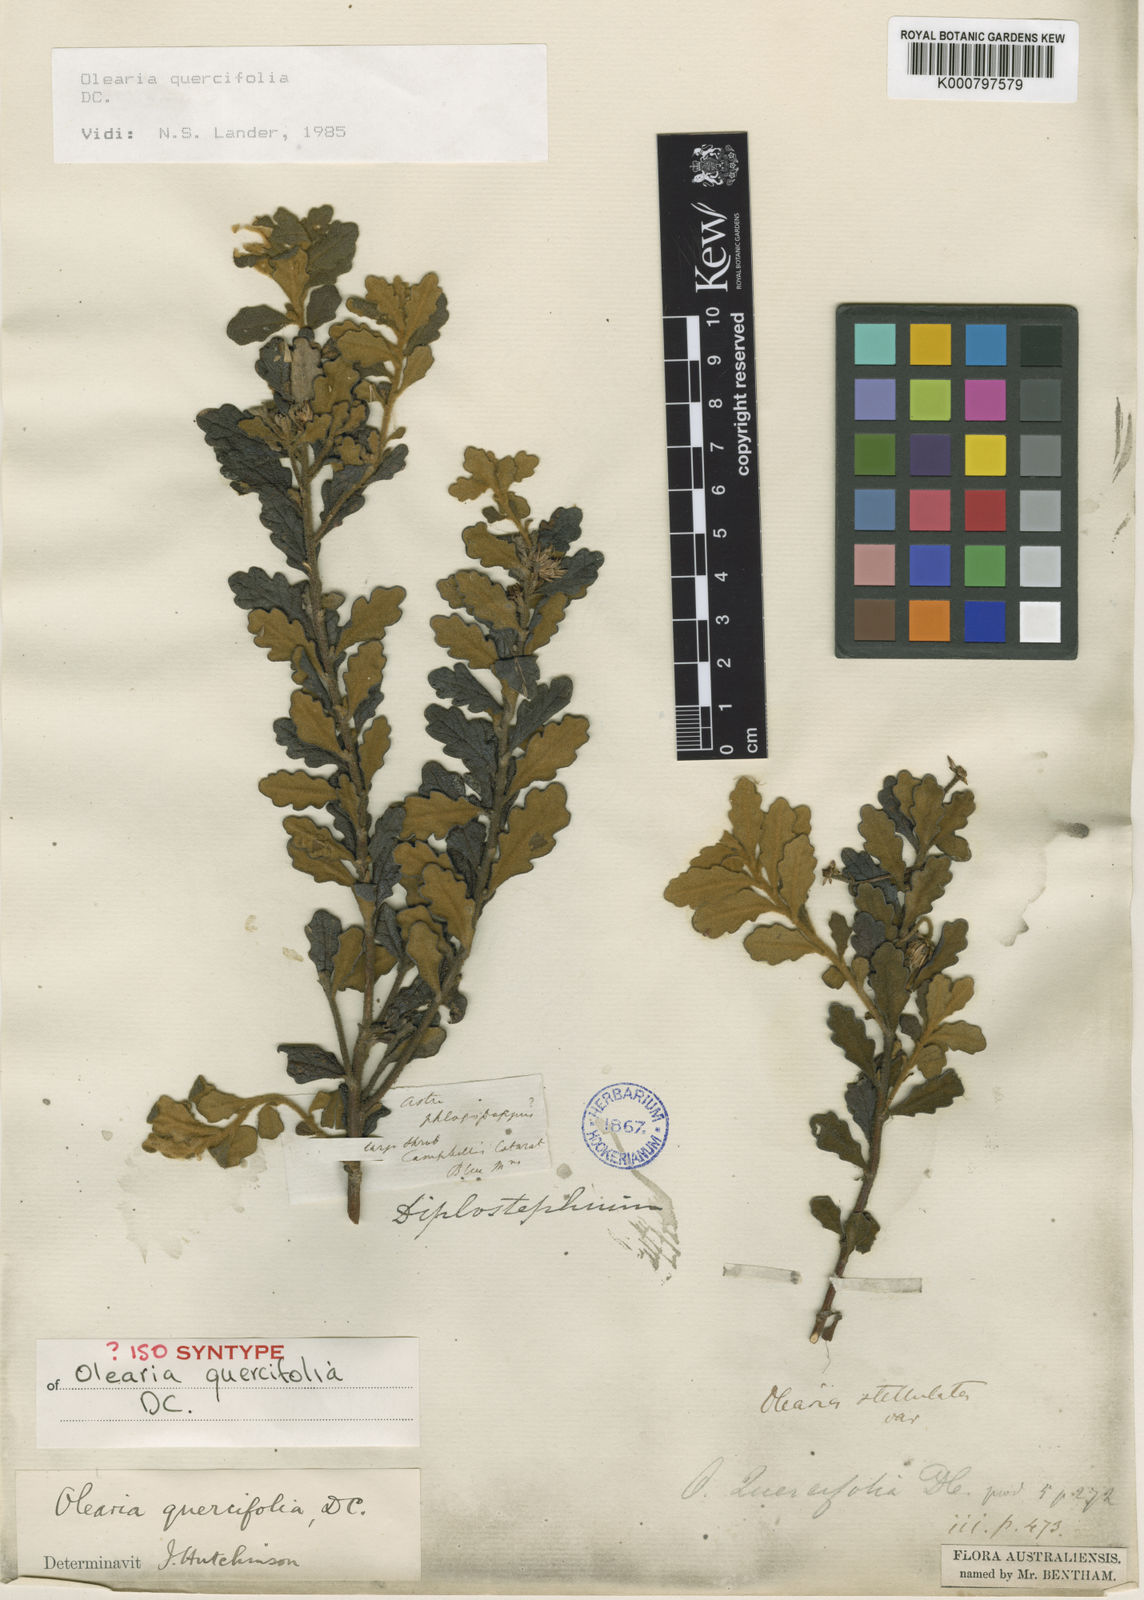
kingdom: Plantae
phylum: Tracheophyta
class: Magnoliopsida
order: Asterales
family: Asteraceae
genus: Olearia
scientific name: Olearia quercifolia
